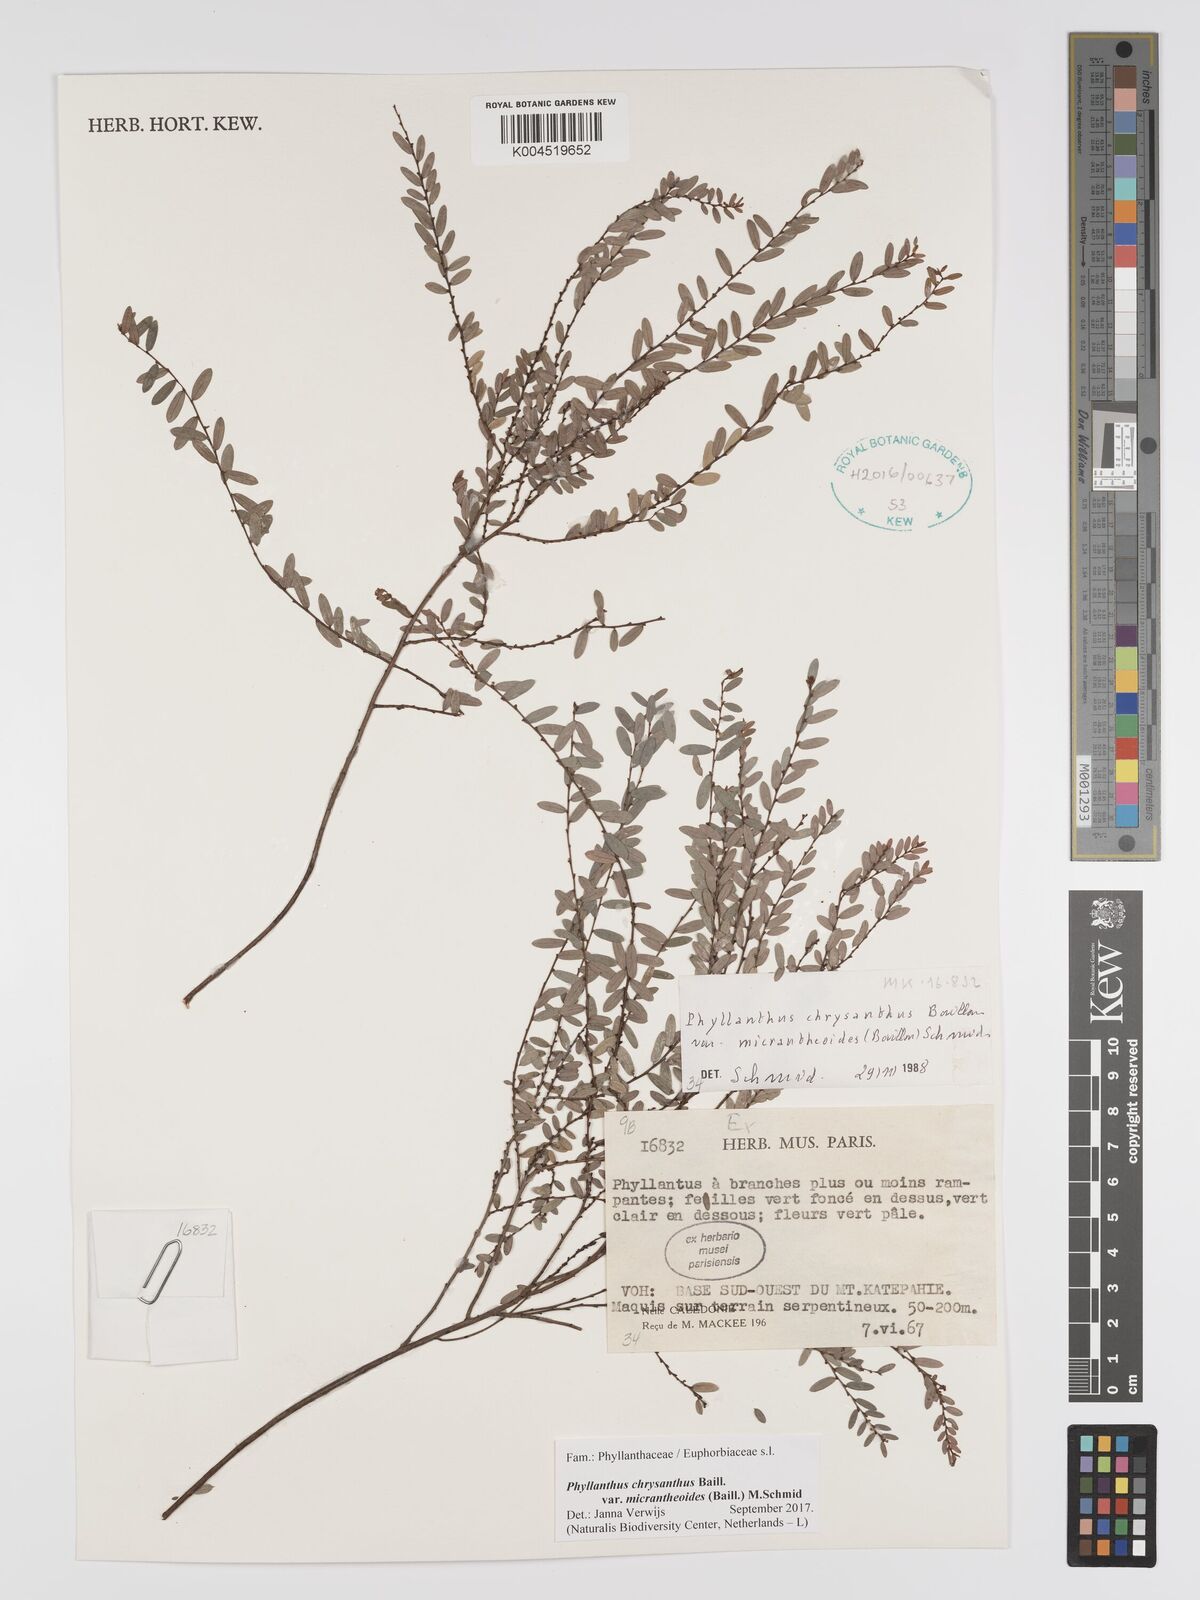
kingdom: Plantae
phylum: Tracheophyta
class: Magnoliopsida
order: Malpighiales
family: Phyllanthaceae
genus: Phyllanthus
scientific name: Phyllanthus chrysanthus
